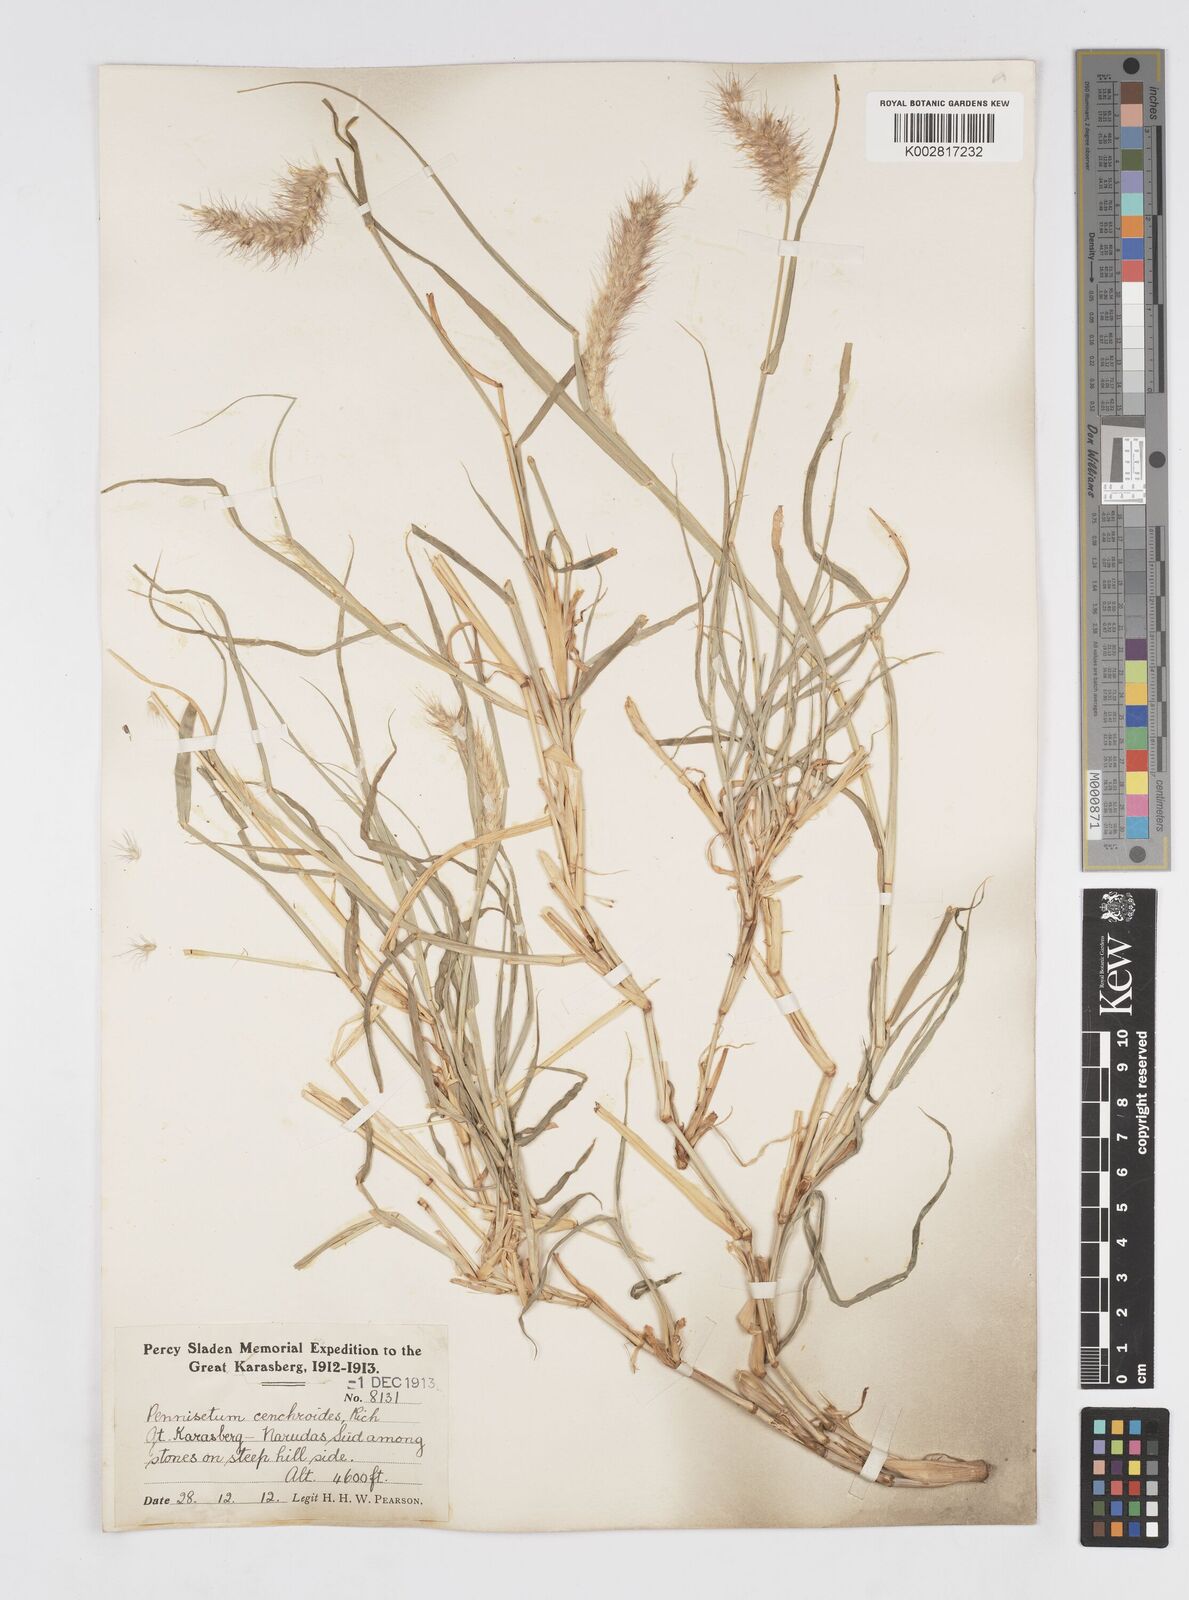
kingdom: Plantae
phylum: Tracheophyta
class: Liliopsida
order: Poales
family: Poaceae
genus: Cenchrus
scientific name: Cenchrus ciliaris
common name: Buffelgrass
